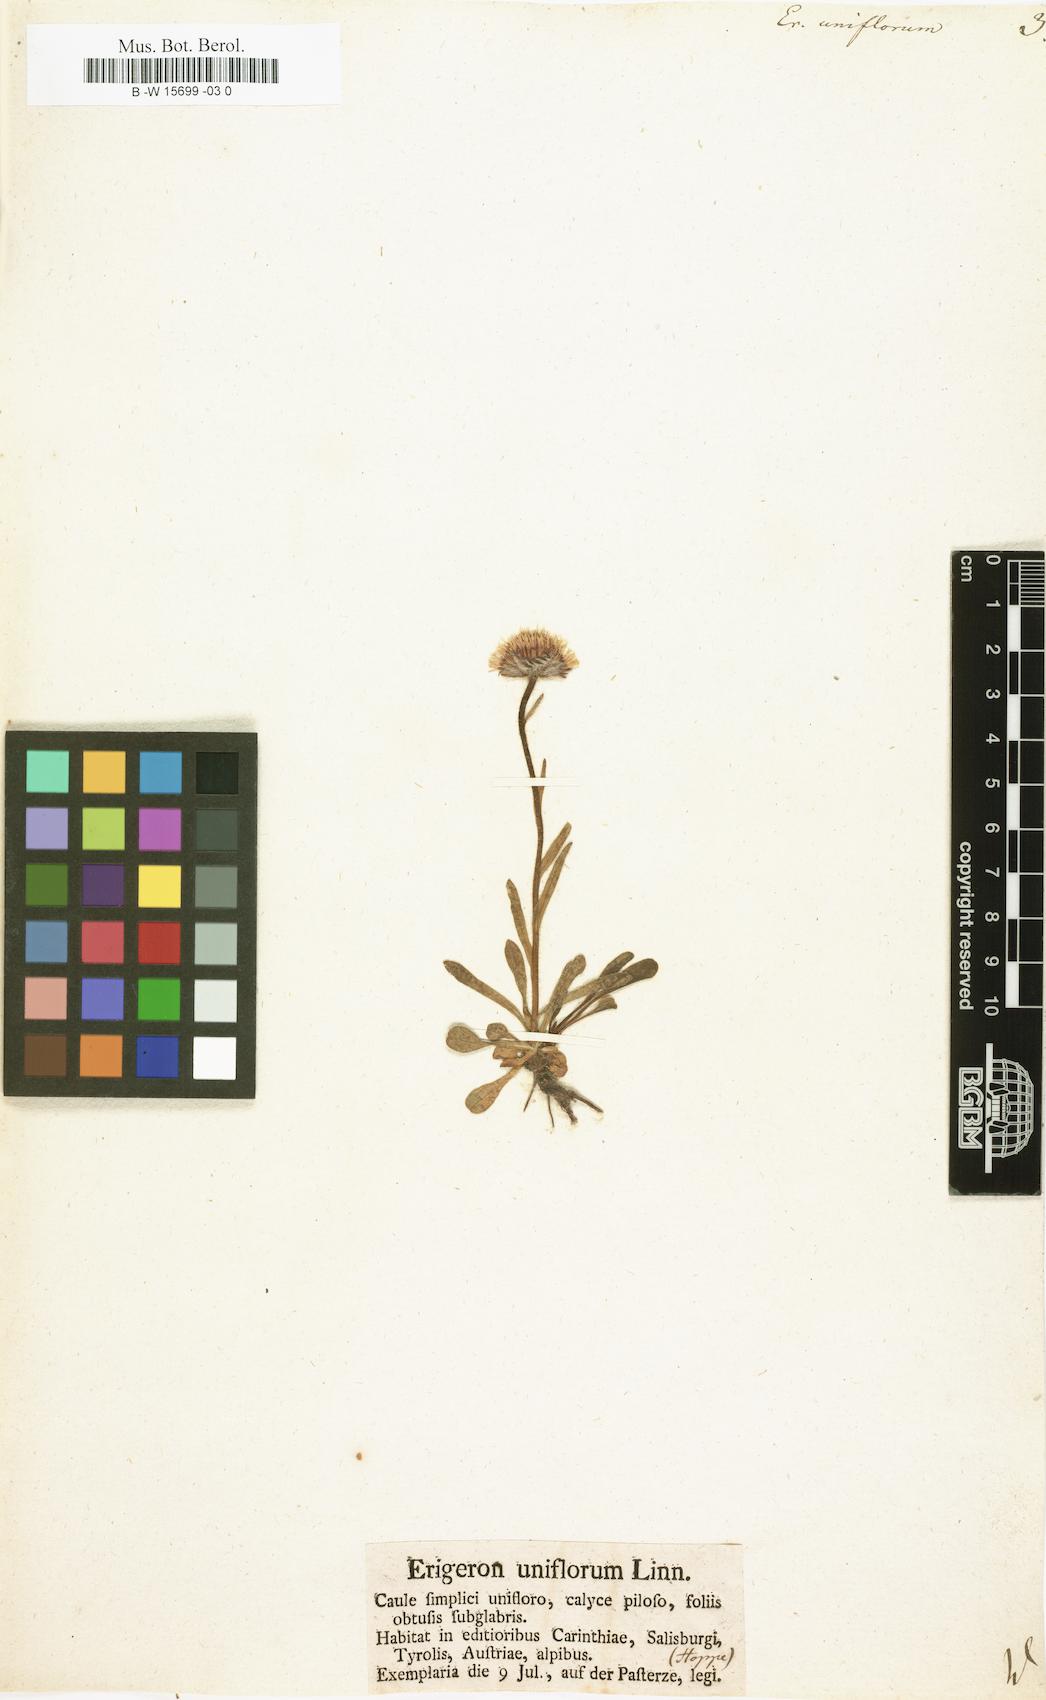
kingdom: Plantae
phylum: Tracheophyta
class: Magnoliopsida
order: Asterales
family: Asteraceae
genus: Erigeron
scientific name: Erigeron uniflorus
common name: Northern daisy
